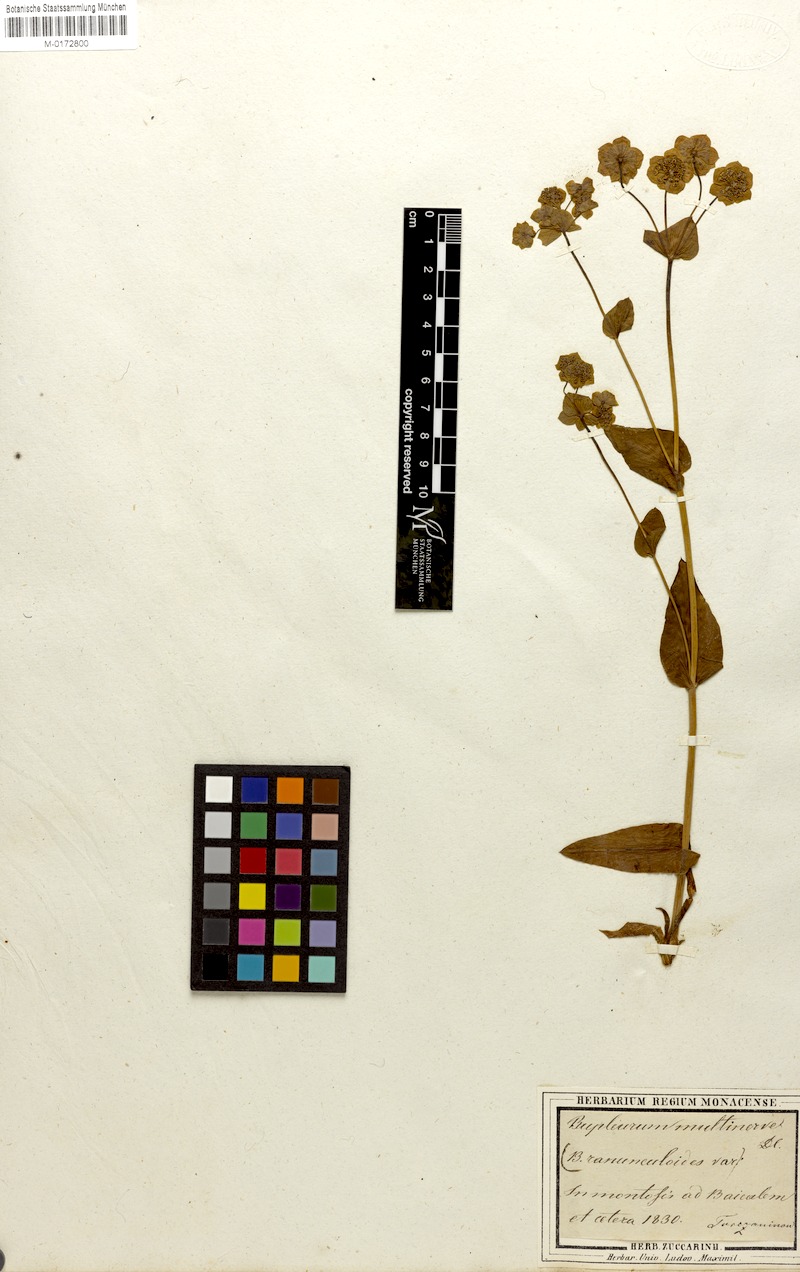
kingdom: Plantae
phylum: Tracheophyta
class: Magnoliopsida
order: Apiales
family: Apiaceae
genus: Bupleurum
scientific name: Bupleurum multinerve
